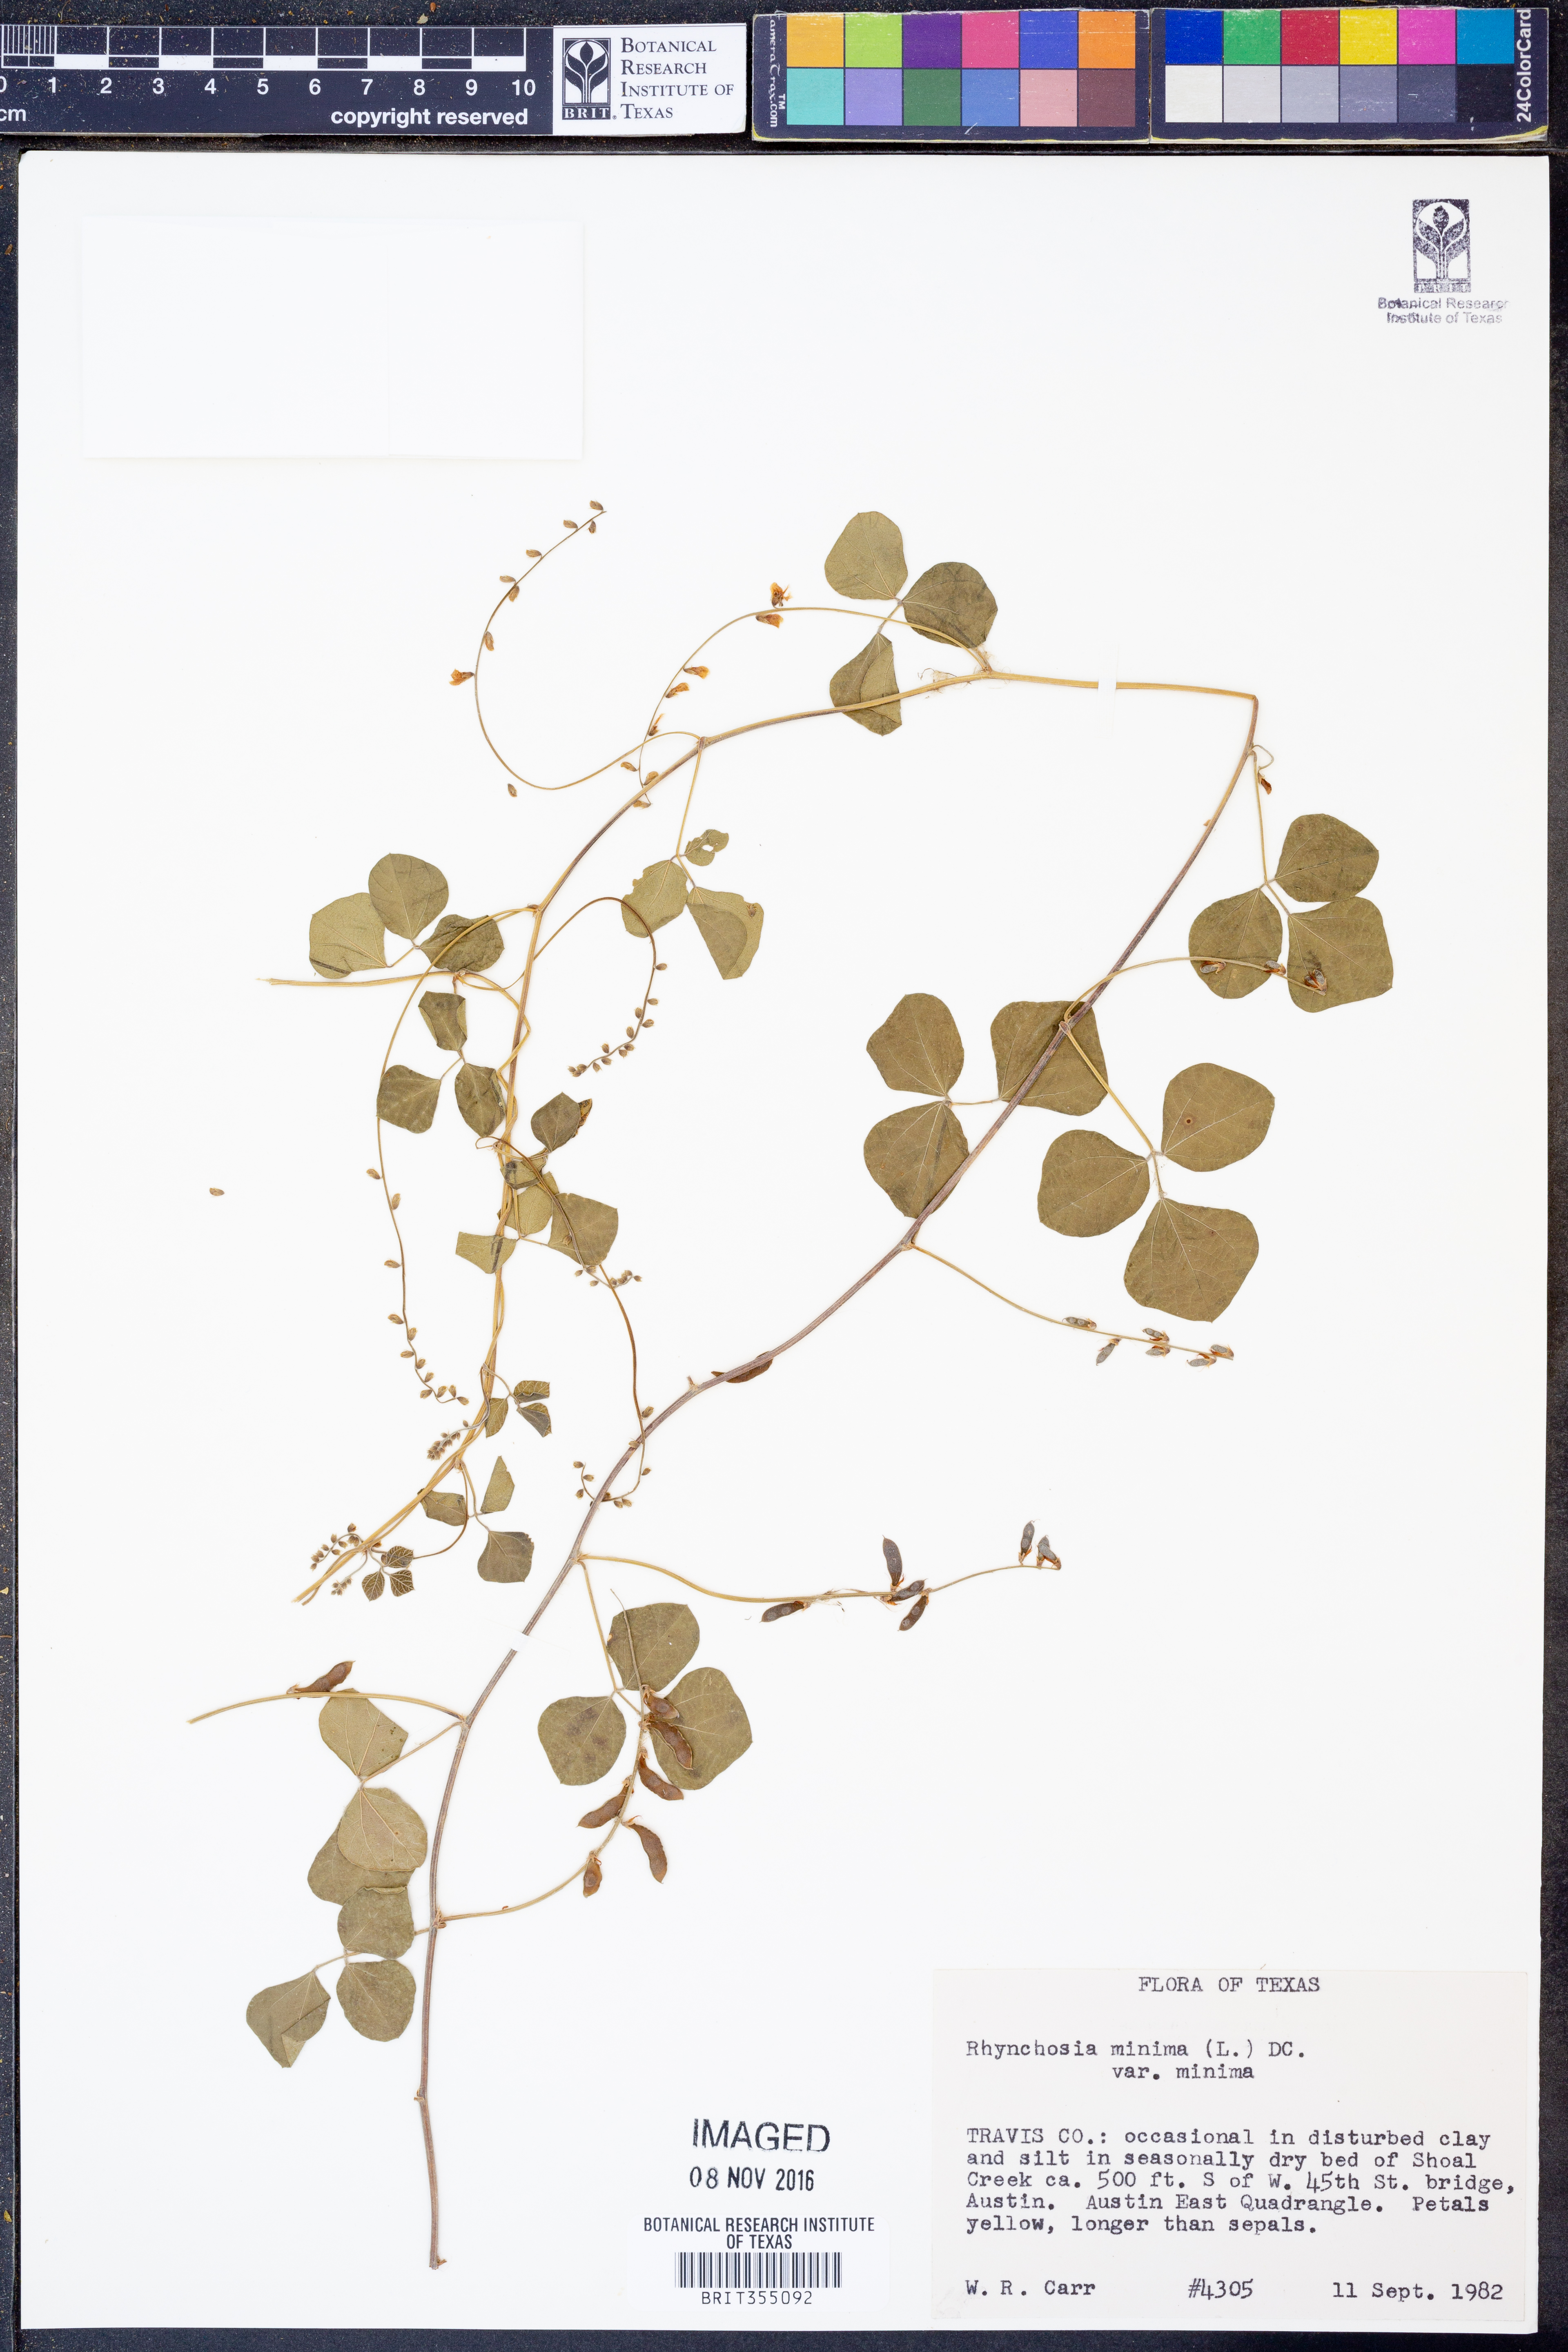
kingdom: Plantae
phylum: Tracheophyta
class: Magnoliopsida
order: Fabales
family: Fabaceae
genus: Rhynchosia
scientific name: Rhynchosia minima
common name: Least snoutbean
